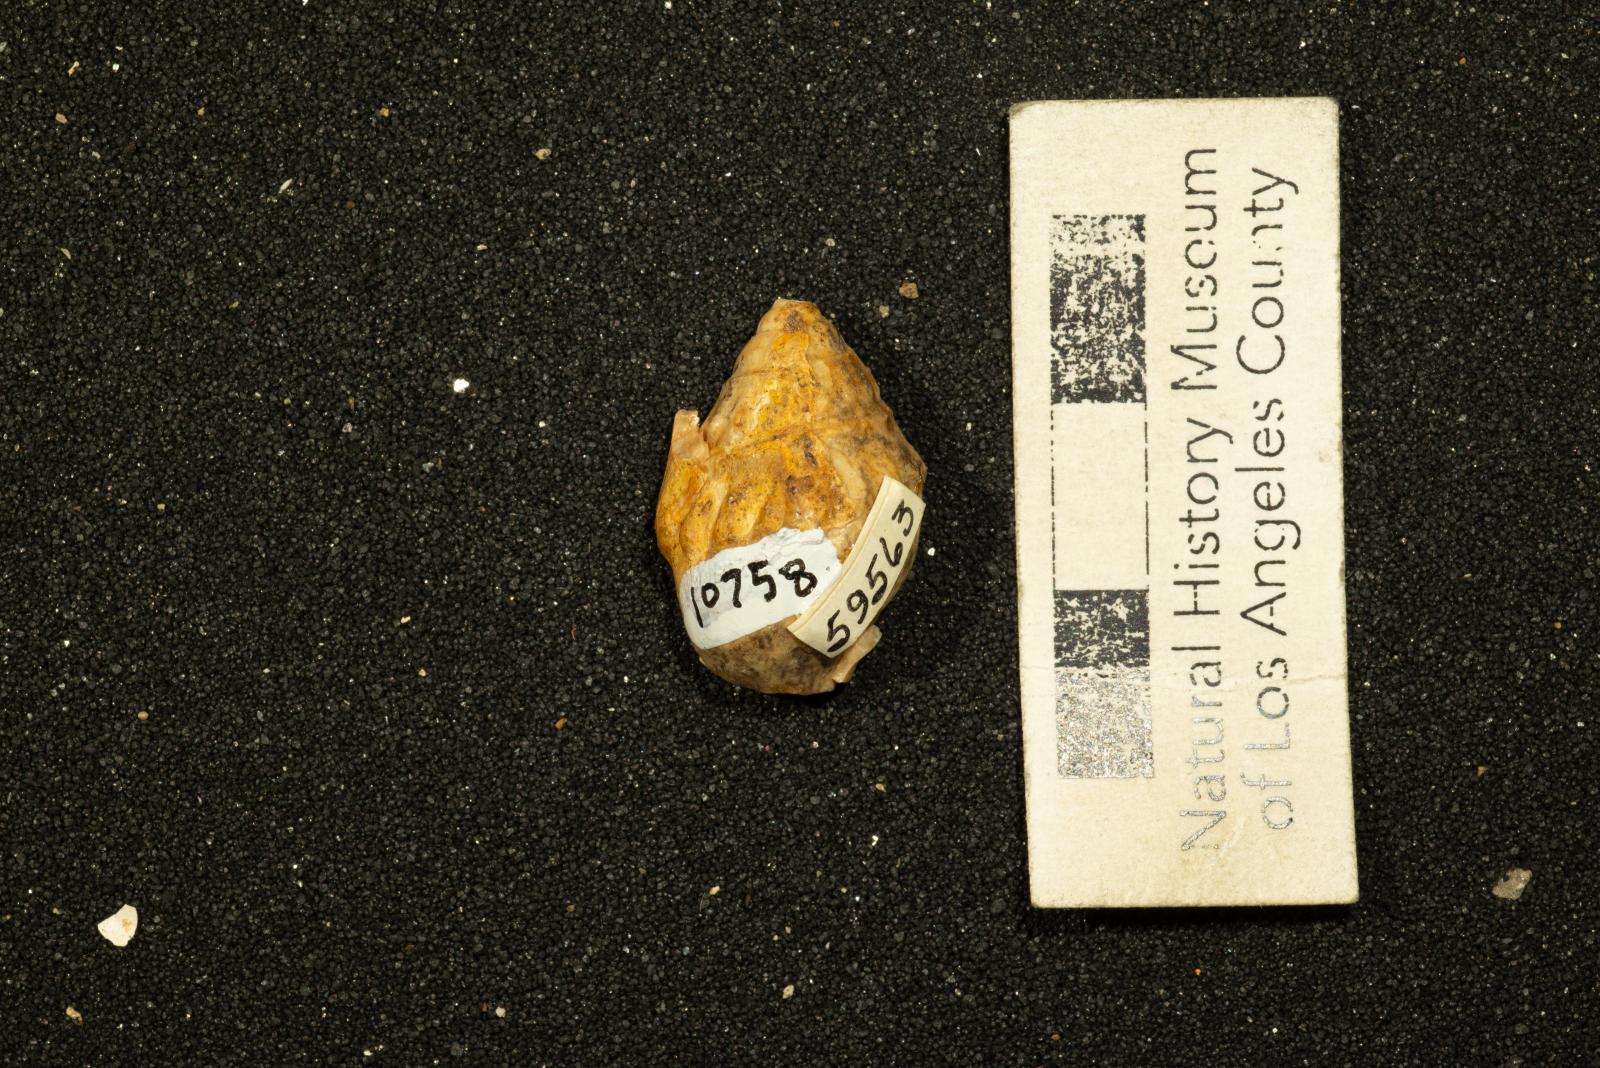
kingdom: Animalia
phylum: Mollusca
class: Gastropoda
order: Littorinimorpha
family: Aporrhaidae
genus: Pyktes
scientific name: Pyktes aspris
